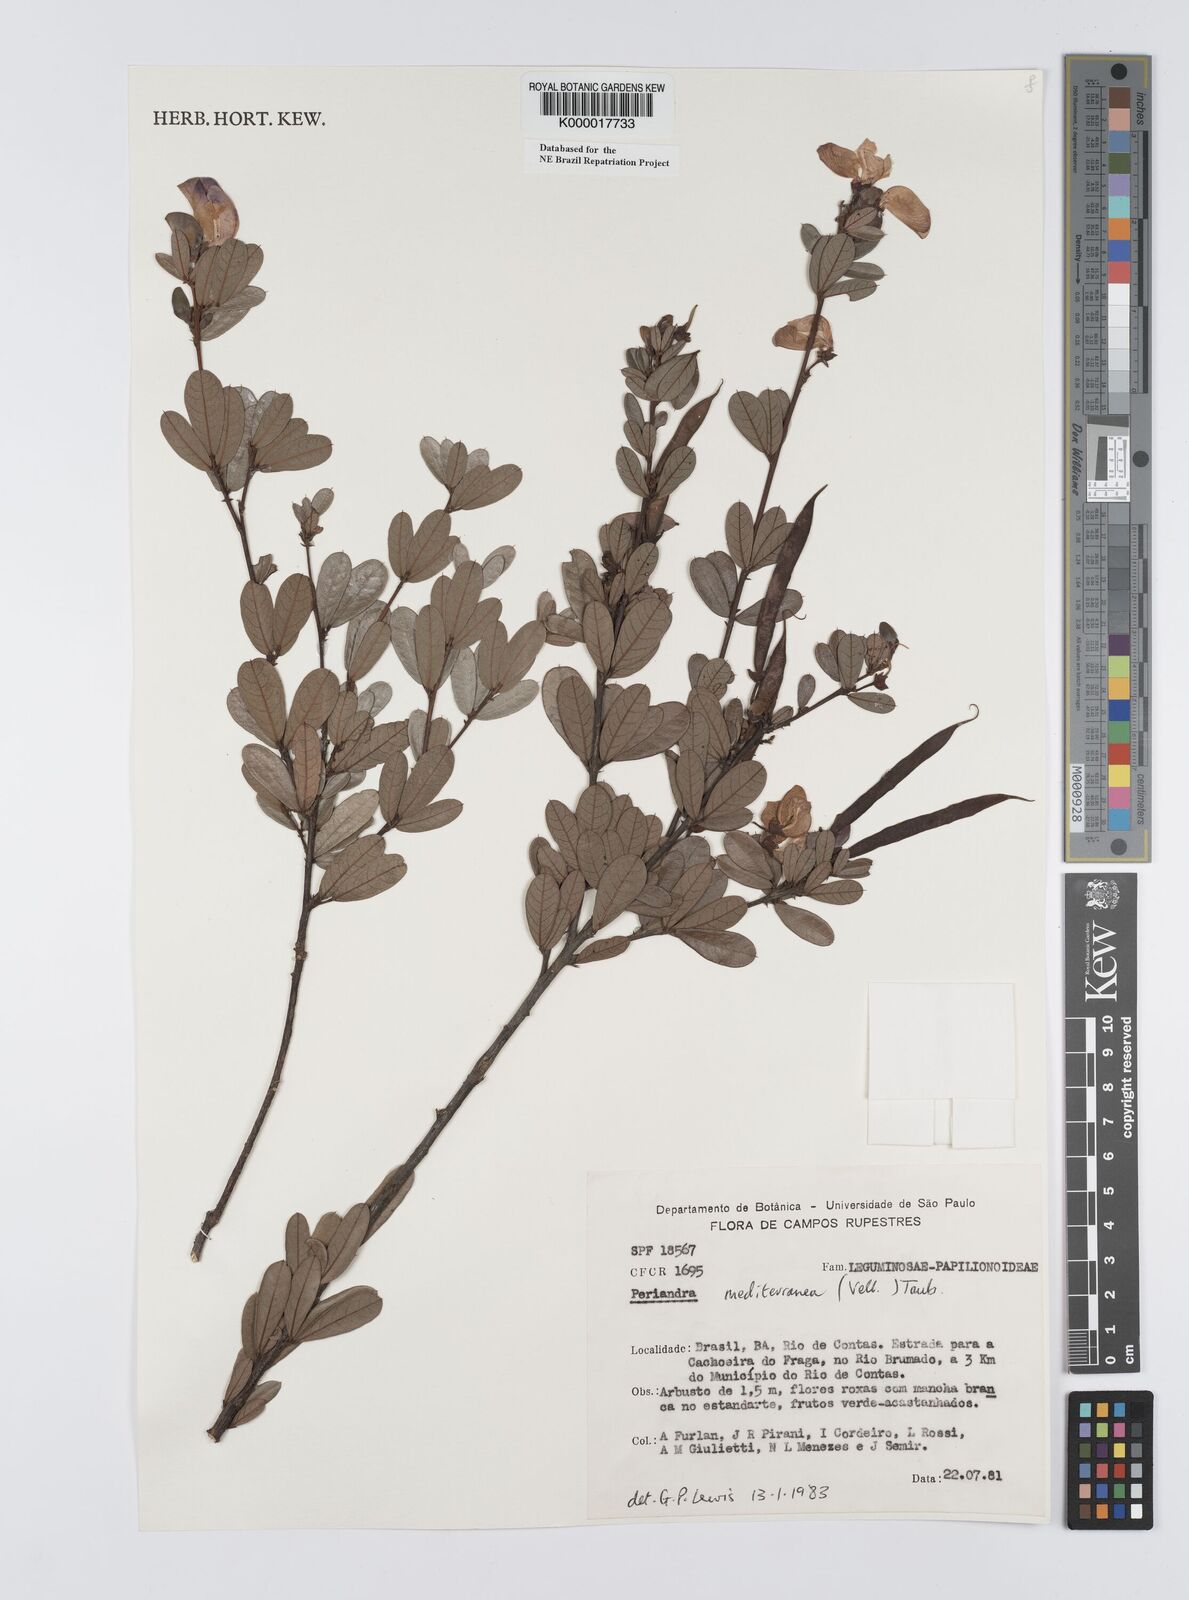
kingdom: Plantae
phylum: Tracheophyta
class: Magnoliopsida
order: Fabales
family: Fabaceae
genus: Periandra
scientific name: Periandra mediterranea
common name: Brazilian licorice
